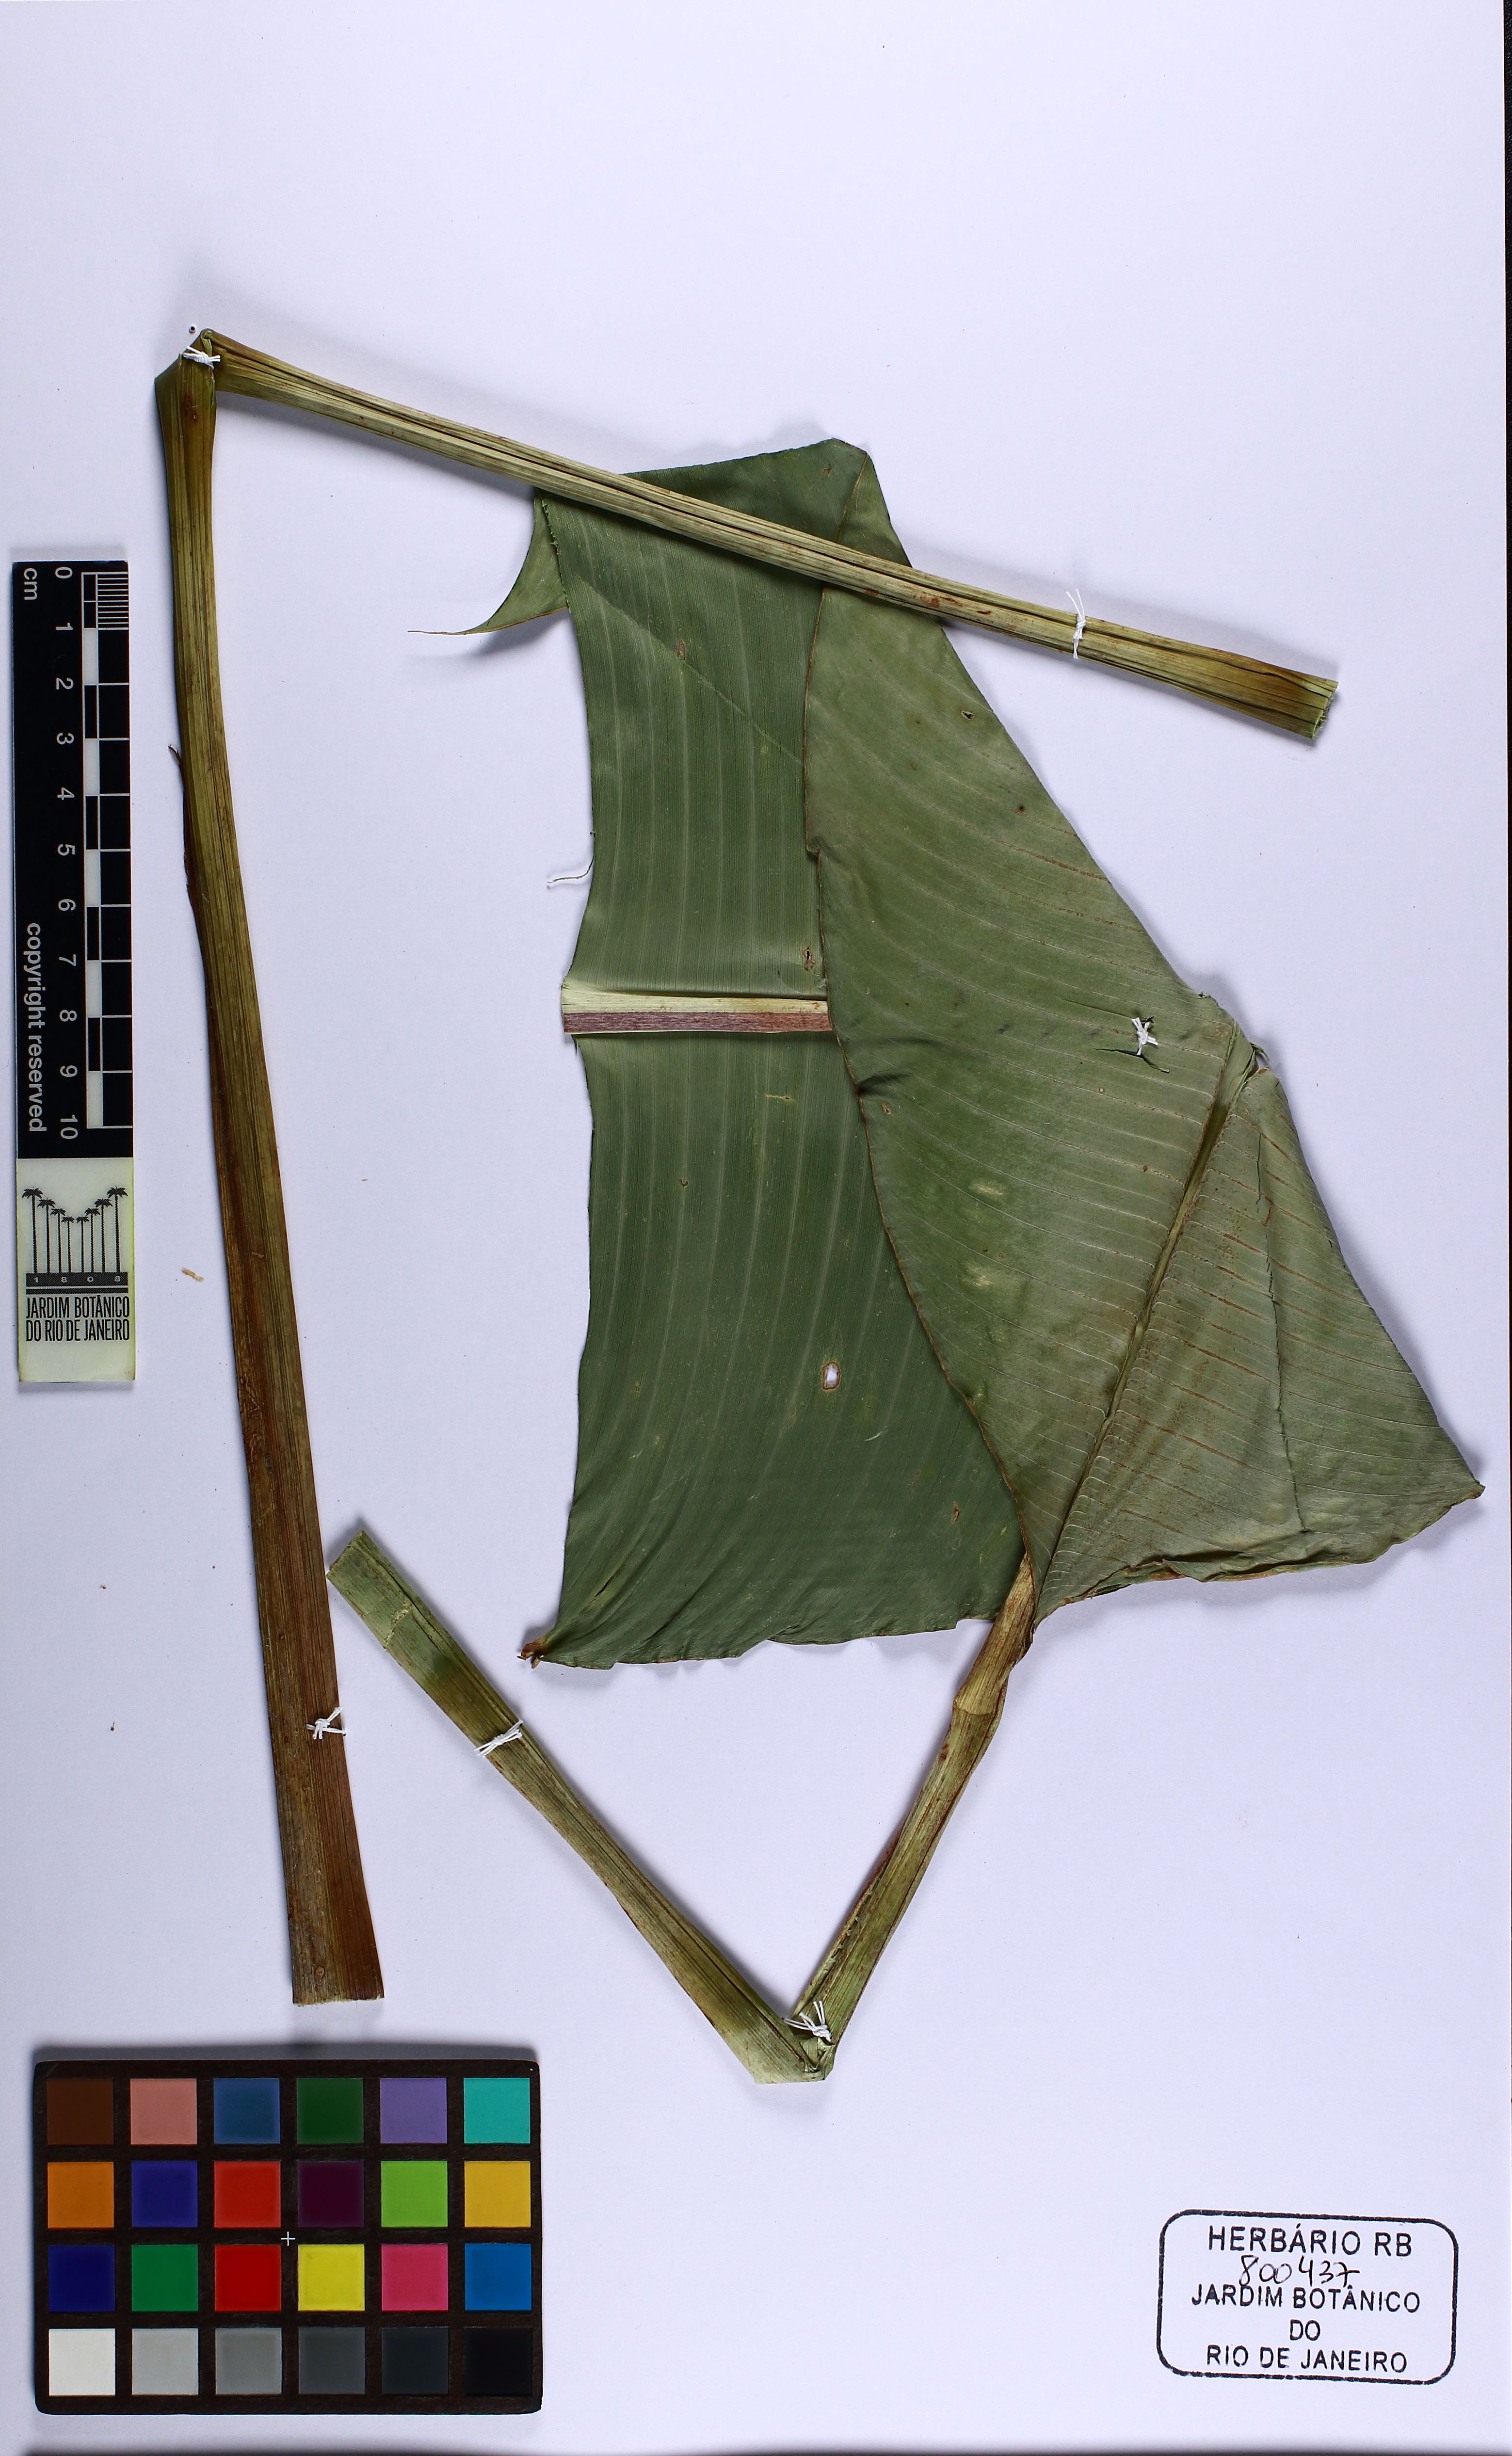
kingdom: Plantae
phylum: Tracheophyta
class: Liliopsida
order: Zingiberales
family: Heliconiaceae
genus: Heliconia
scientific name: Heliconia bihai
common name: Macaw flower
